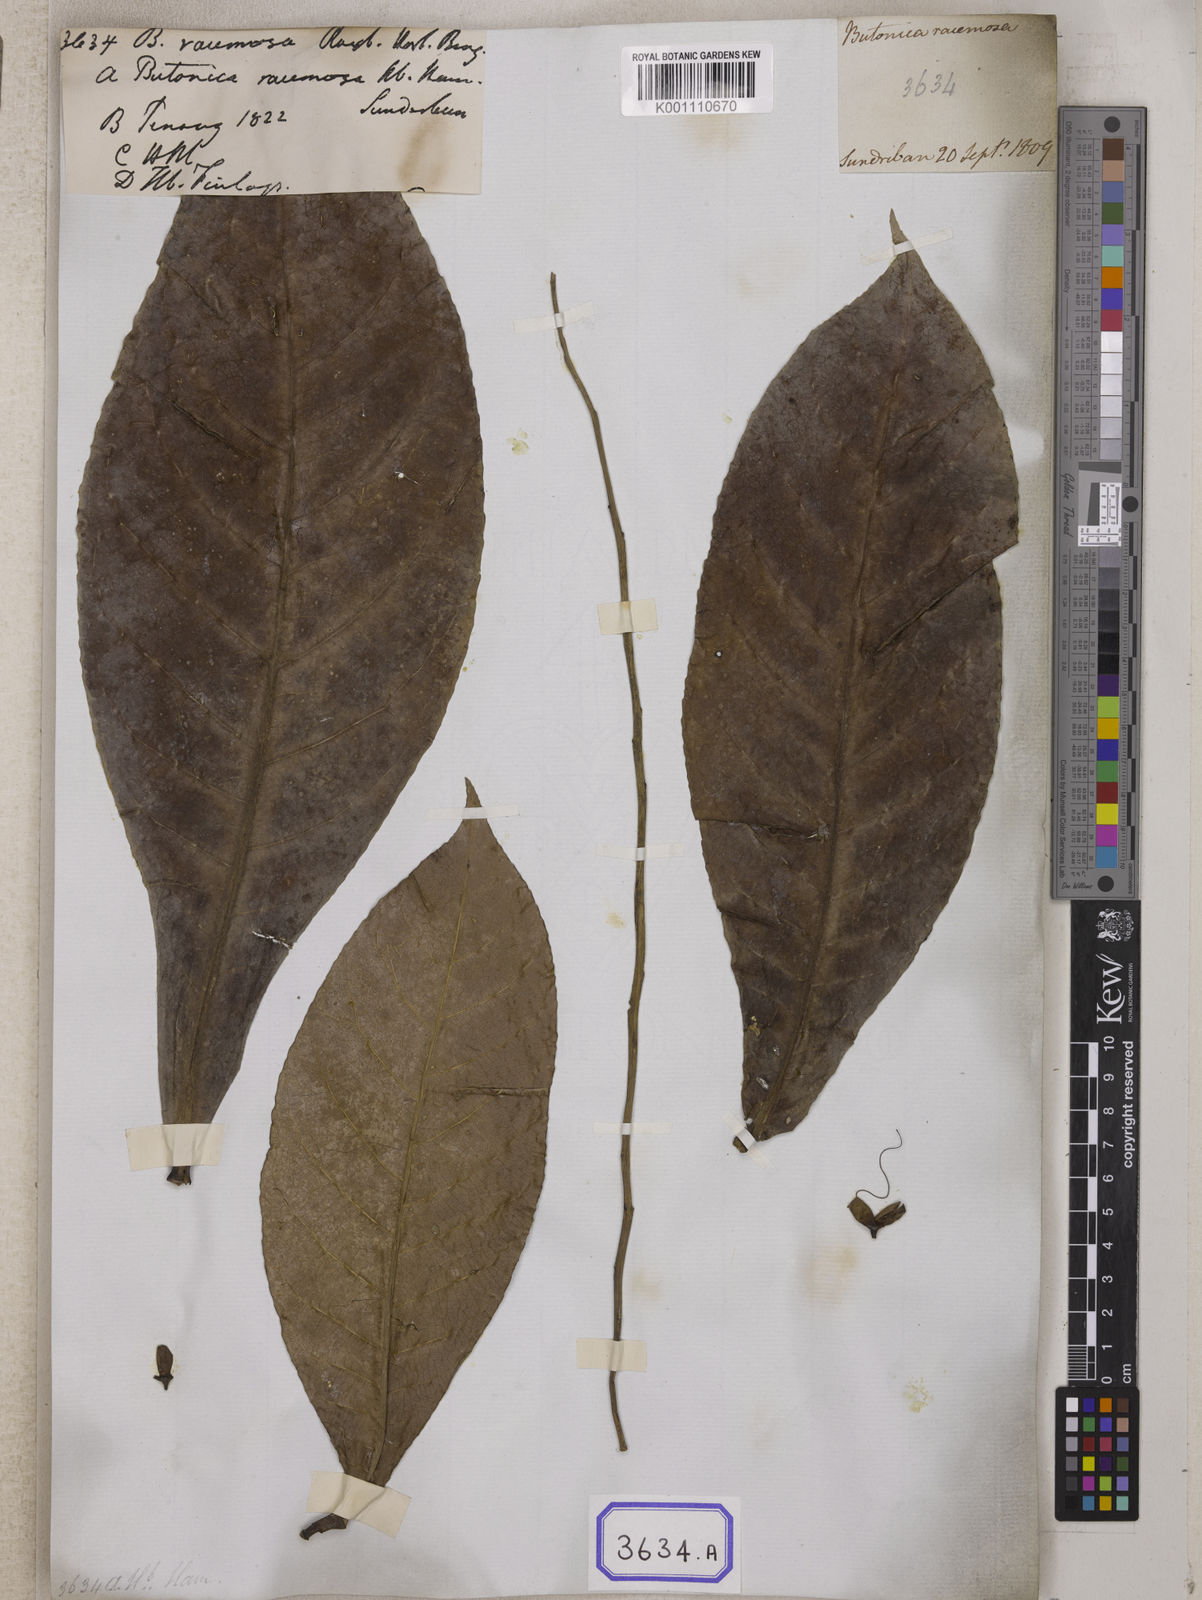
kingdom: Plantae
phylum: Tracheophyta
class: Magnoliopsida
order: Ericales
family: Lecythidaceae
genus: Barringtonia
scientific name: Barringtonia
